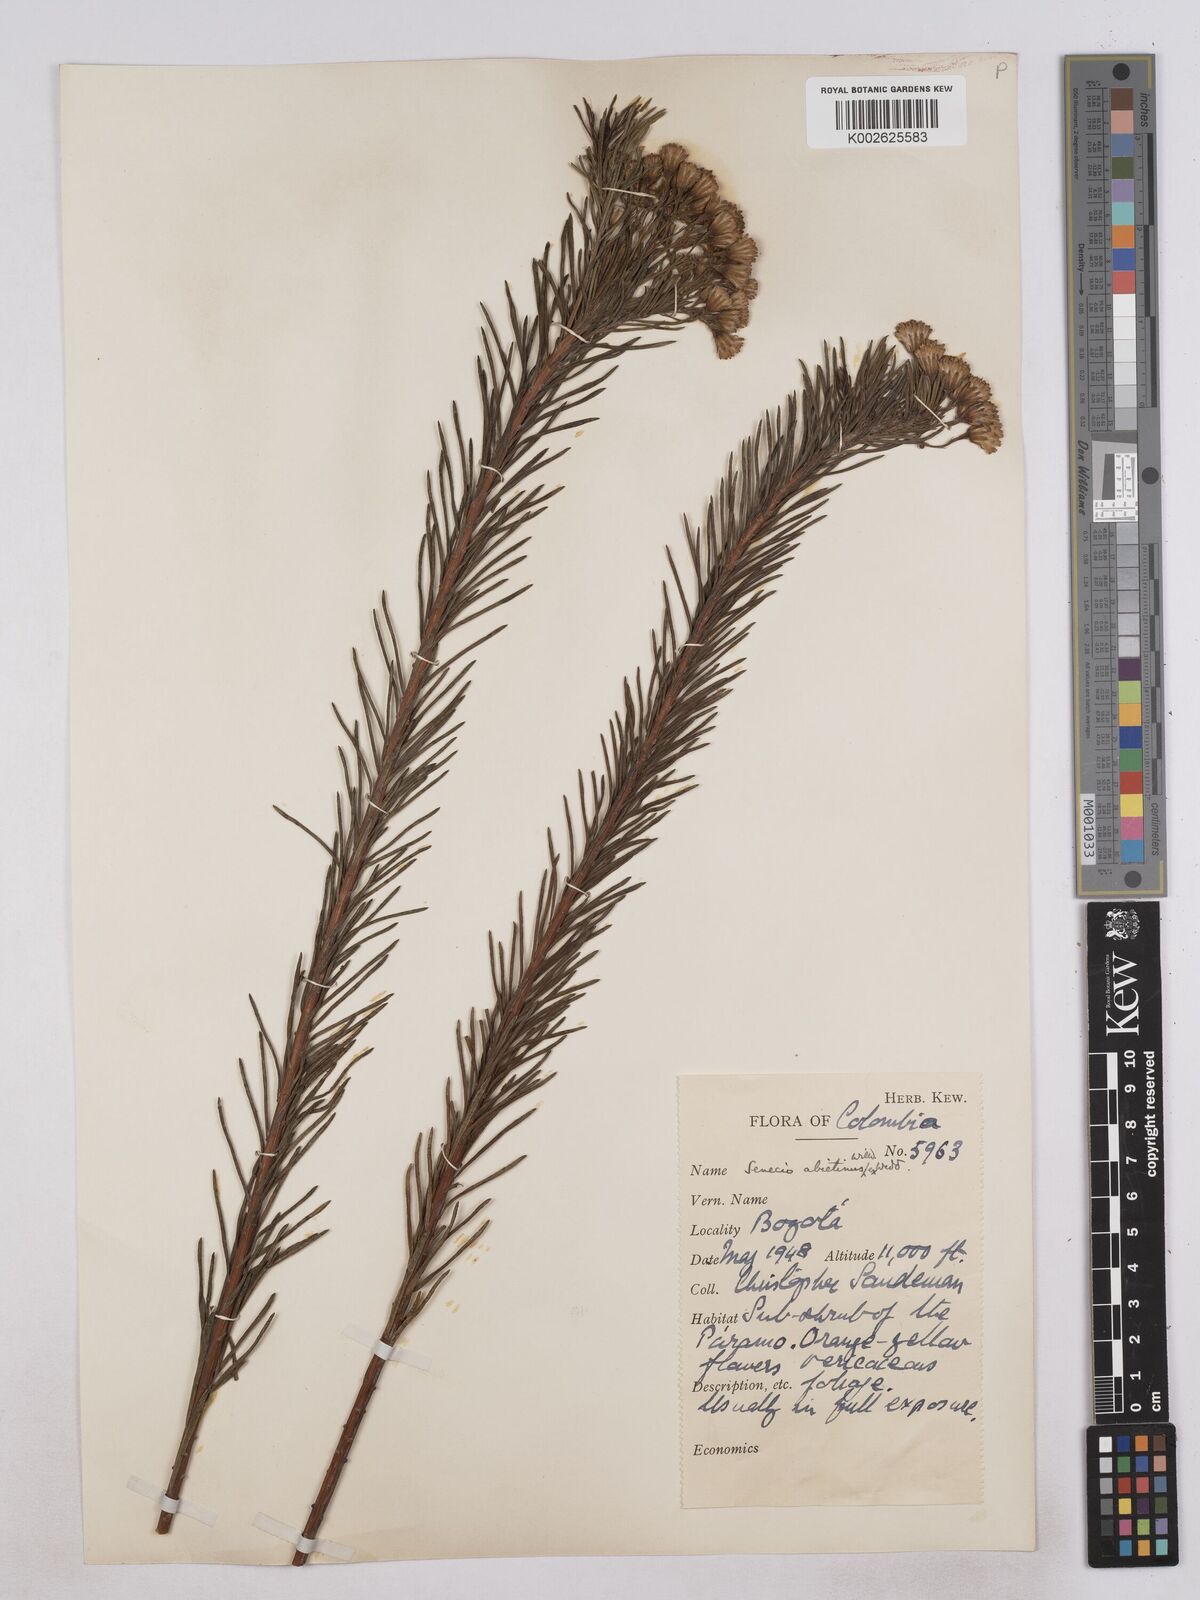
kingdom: Plantae
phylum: Tracheophyta
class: Magnoliopsida
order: Asterales
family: Asteraceae
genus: Monticalia
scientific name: Monticalia abietina
